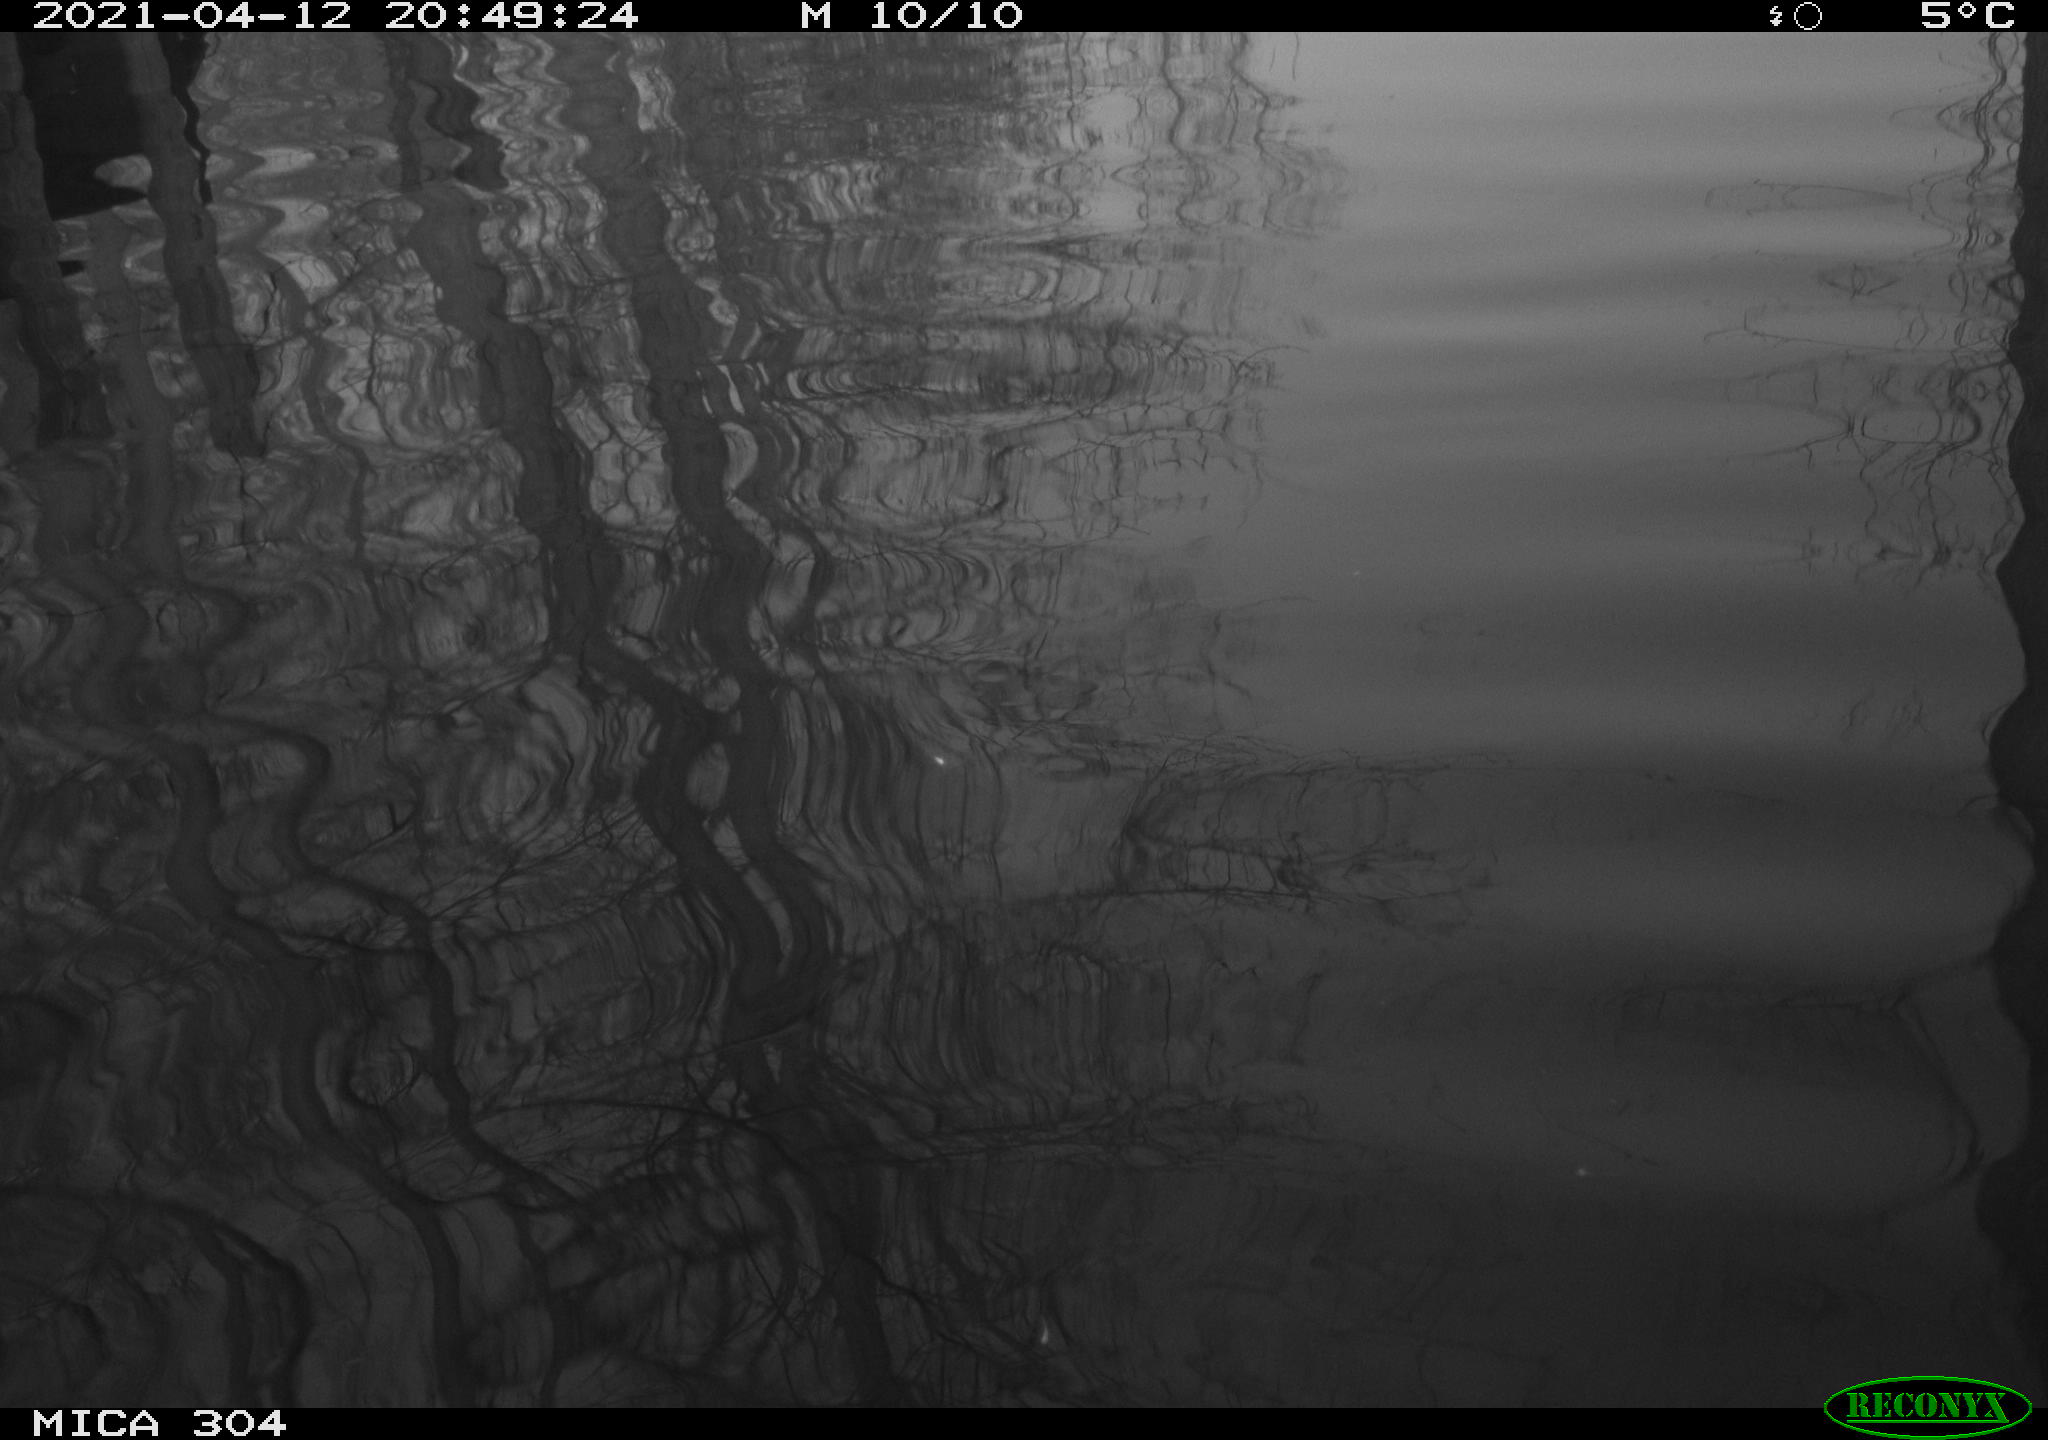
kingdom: Animalia
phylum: Chordata
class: Aves
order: Anseriformes
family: Anatidae
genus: Anas
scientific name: Anas
